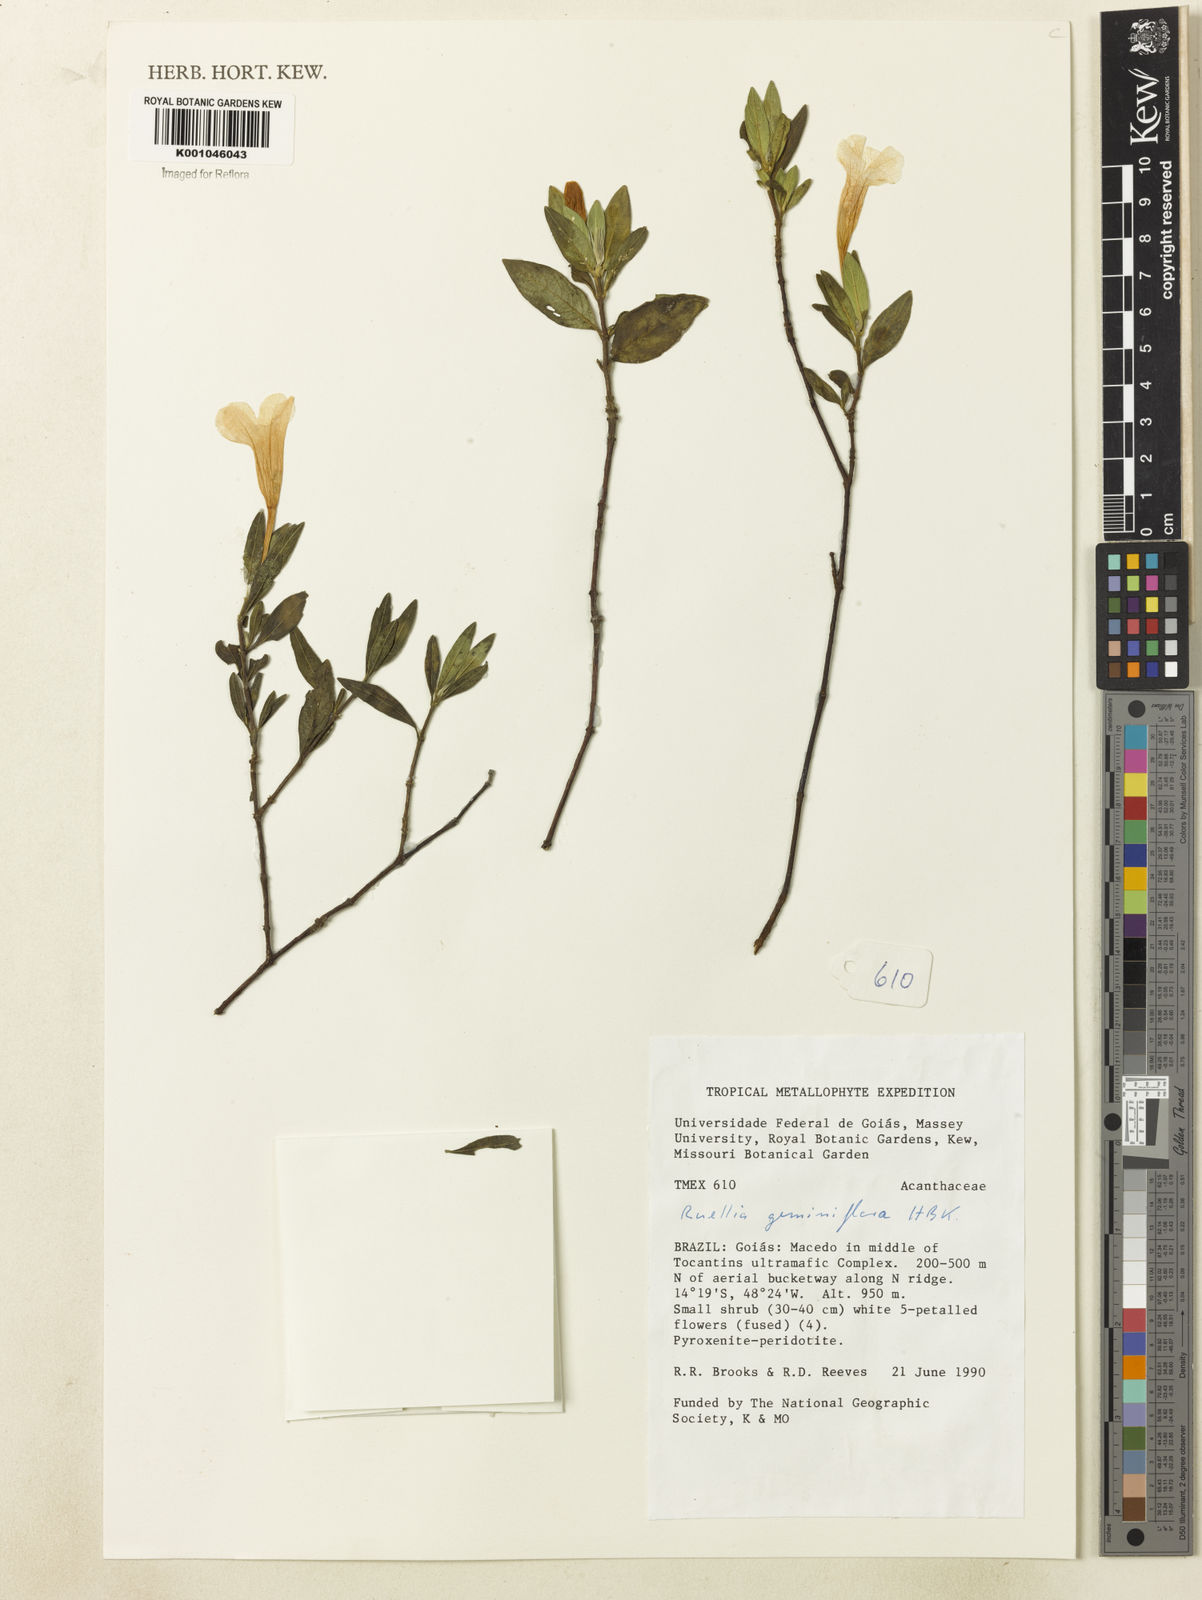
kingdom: Plantae
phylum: Tracheophyta
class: Magnoliopsida
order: Lamiales
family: Acanthaceae
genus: Ruellia
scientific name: Ruellia geminiflora
